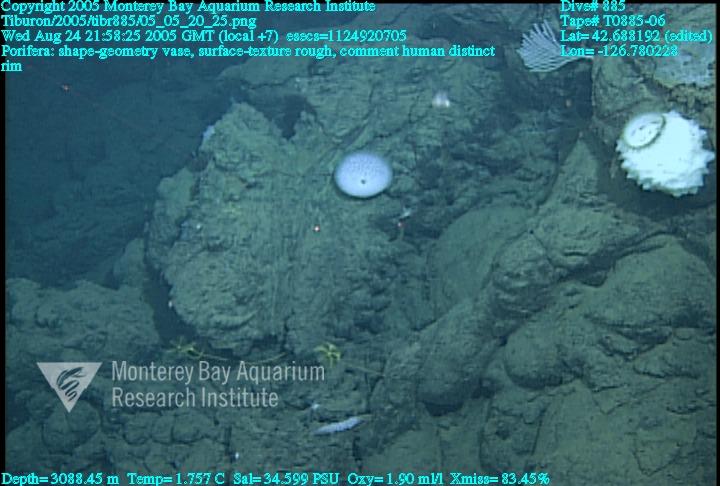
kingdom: Animalia
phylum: Porifera
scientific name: Porifera
